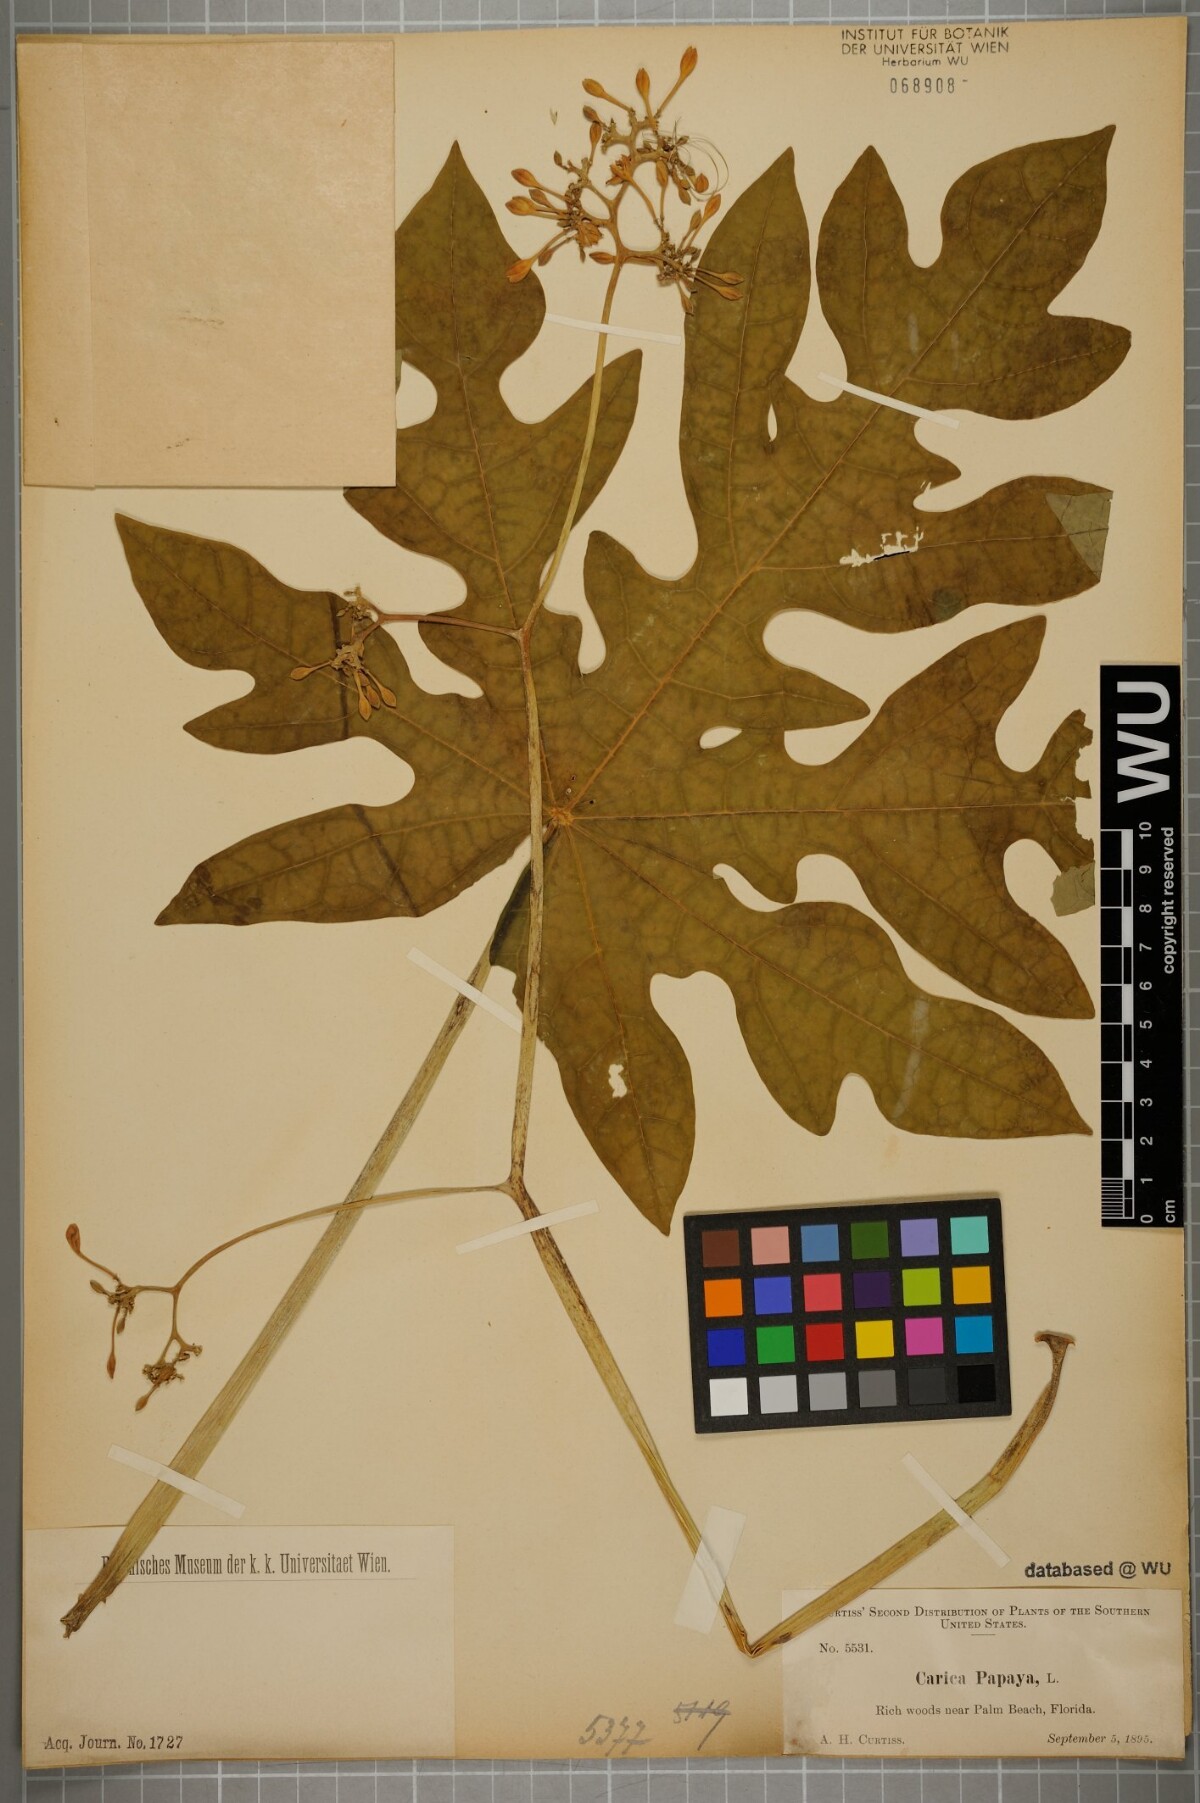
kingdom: Plantae
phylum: Tracheophyta
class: Magnoliopsida
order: Brassicales
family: Caricaceae
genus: Carica
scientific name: Carica papaya
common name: Papaya
